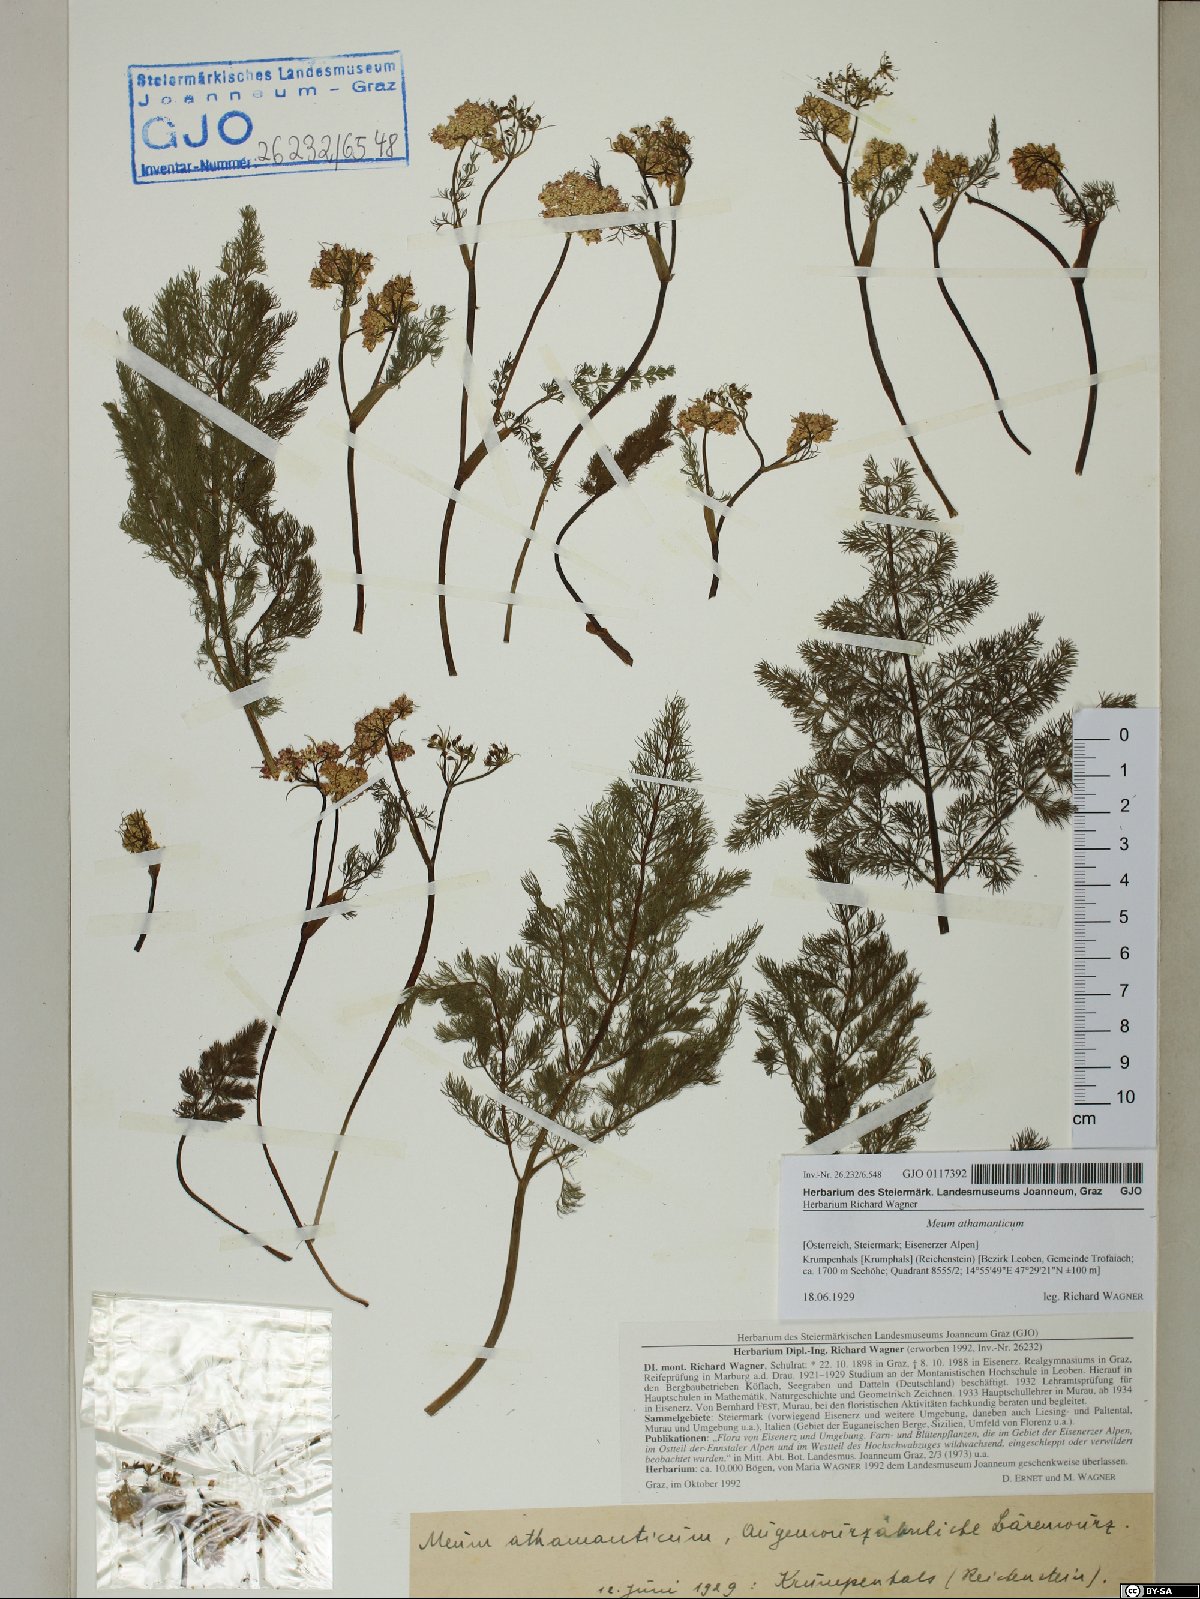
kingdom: Plantae
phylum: Tracheophyta
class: Magnoliopsida
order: Apiales
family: Apiaceae
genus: Meum
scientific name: Meum athamanticum
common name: Spignel
